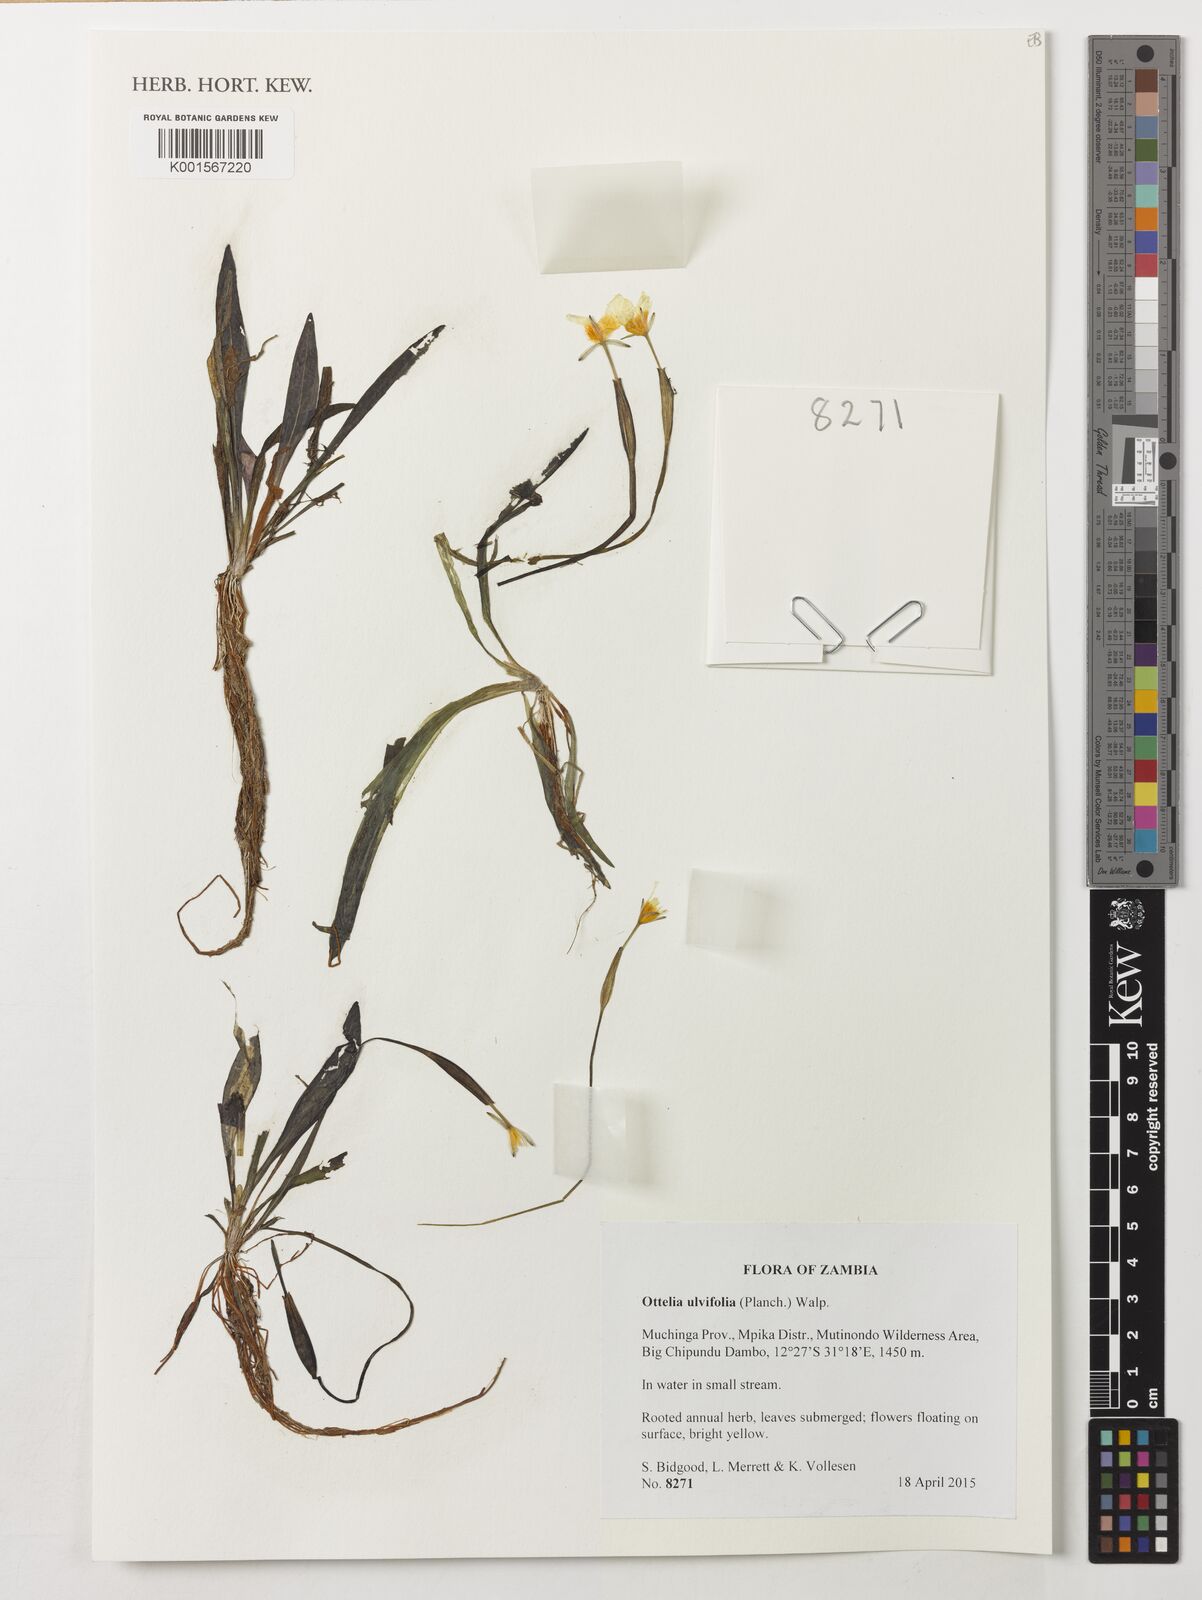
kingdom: Plantae
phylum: Tracheophyta
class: Liliopsida
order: Alismatales
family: Hydrocharitaceae
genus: Ottelia
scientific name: Ottelia ulvifolia
